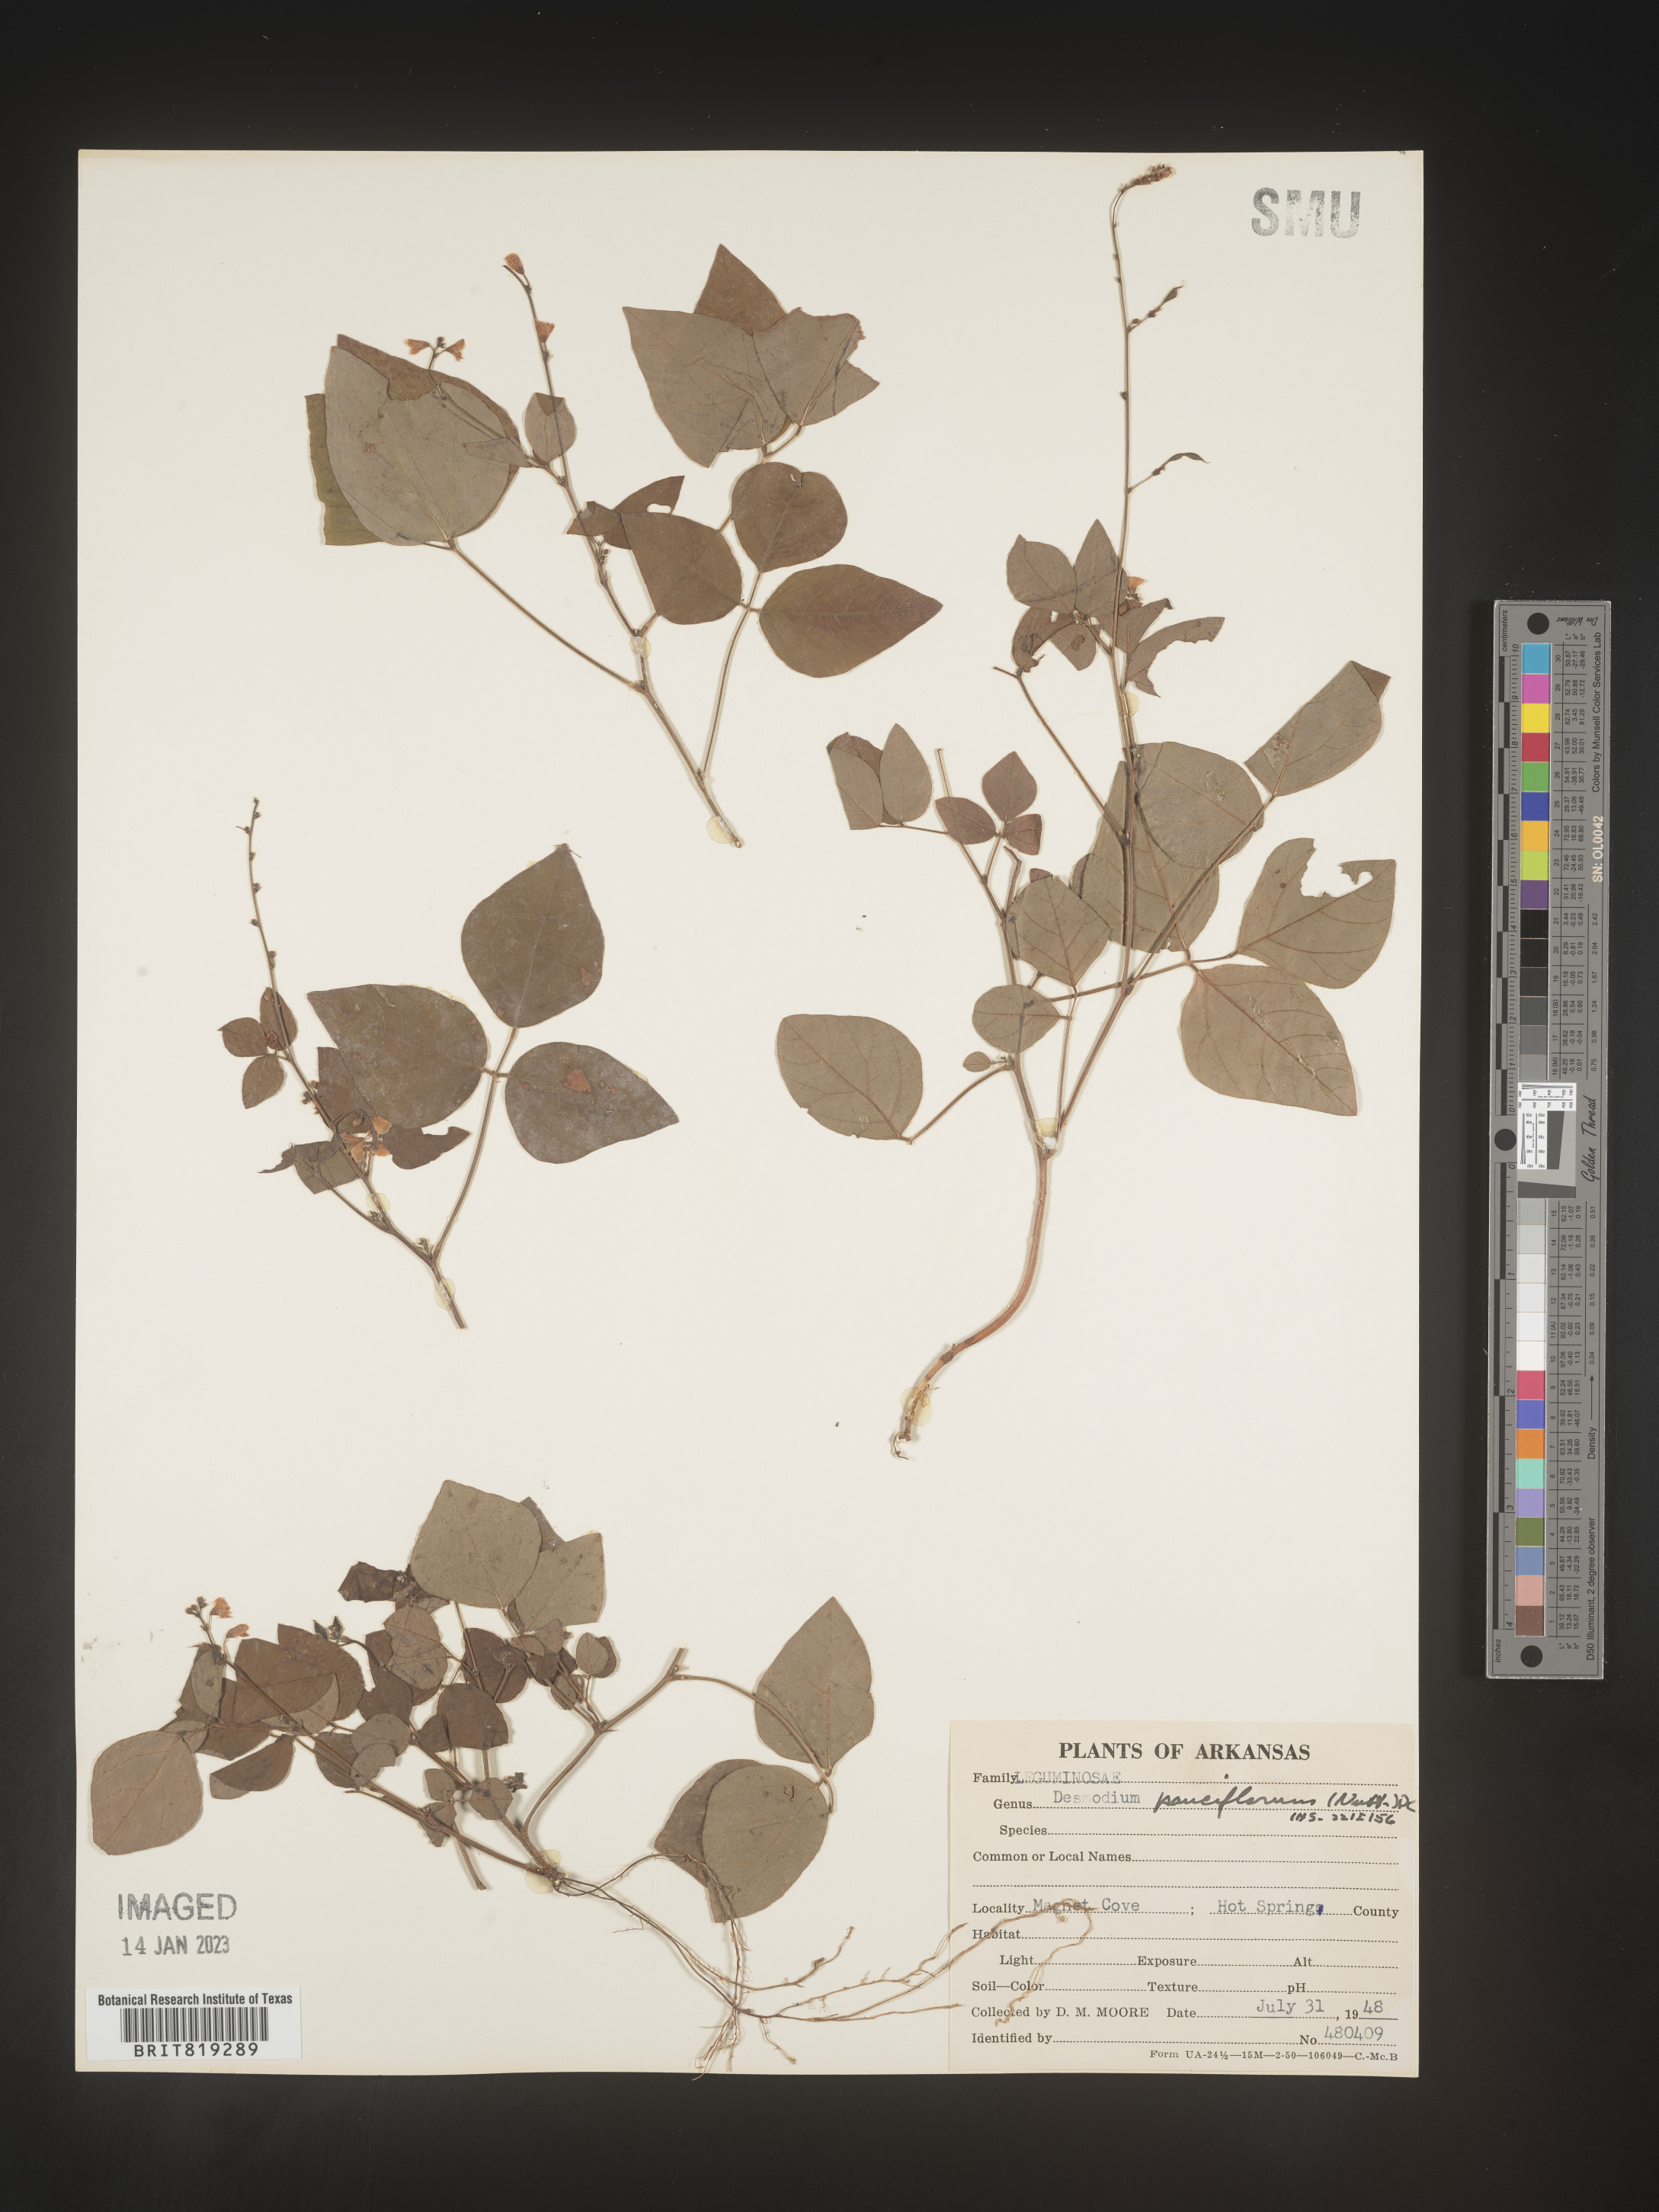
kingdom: Plantae
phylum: Tracheophyta
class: Magnoliopsida
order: Fabales
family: Fabaceae
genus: Hylodesmum
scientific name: Hylodesmum pauciflorum
